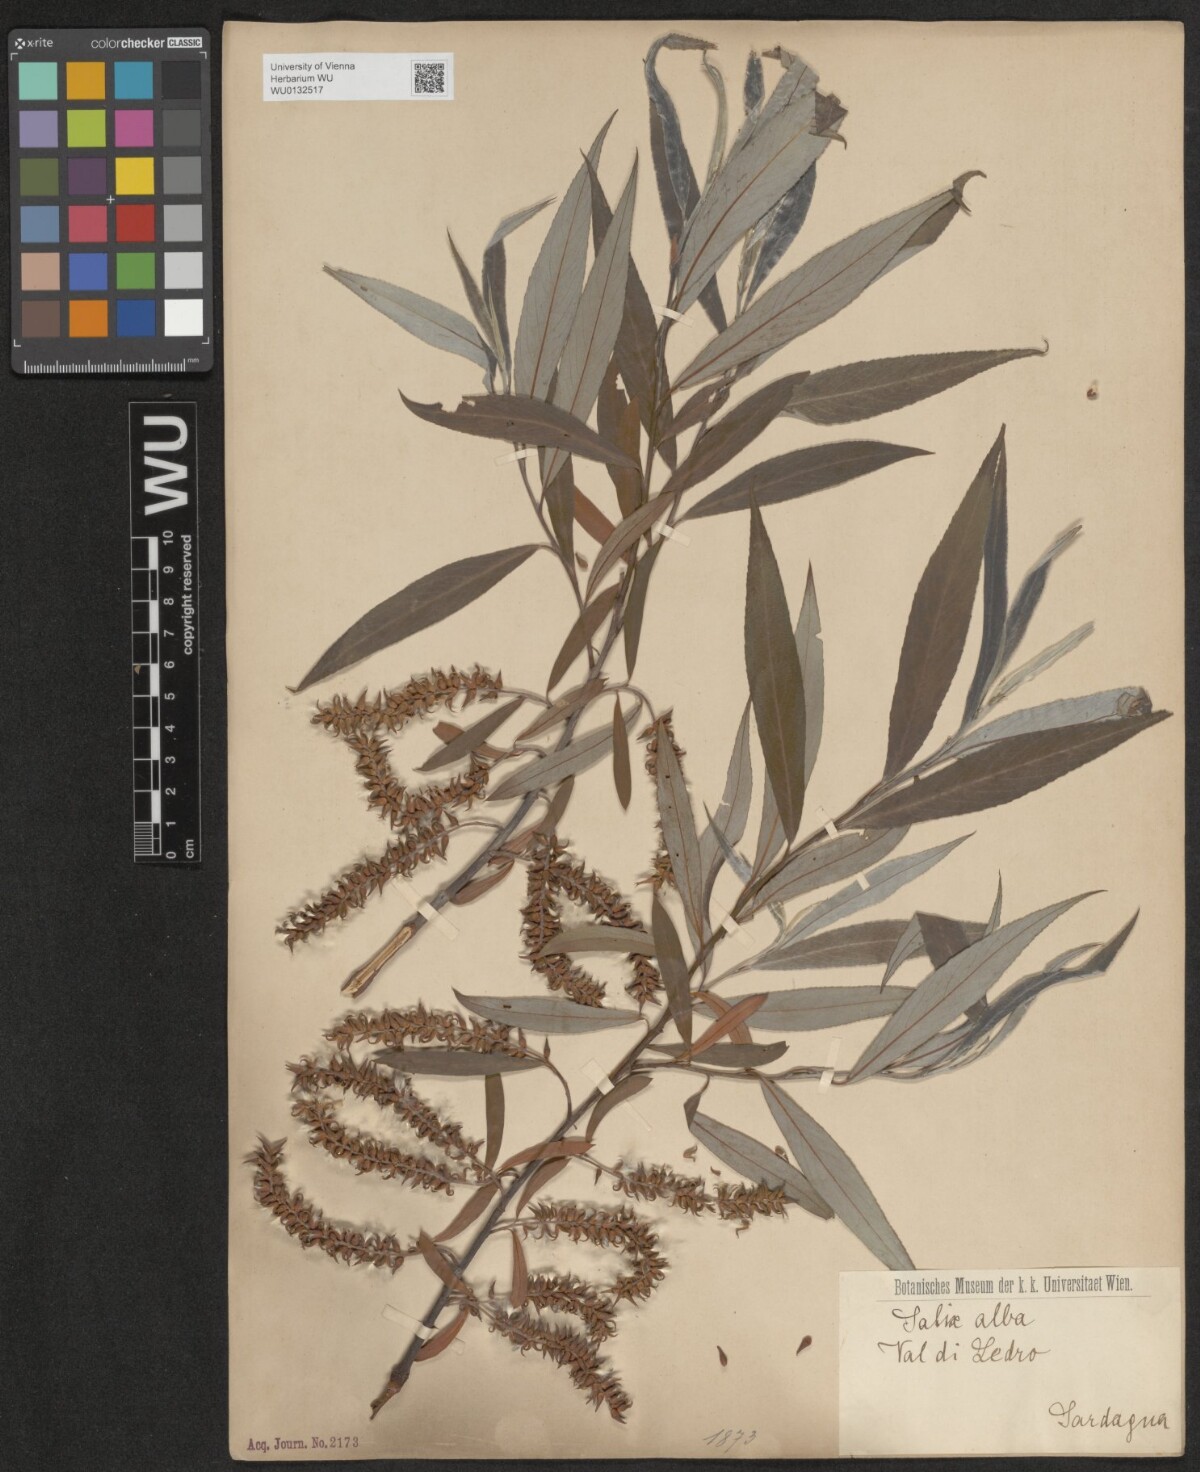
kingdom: Plantae
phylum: Tracheophyta
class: Magnoliopsida
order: Malpighiales
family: Salicaceae
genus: Salix
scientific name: Salix alba
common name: White willow
